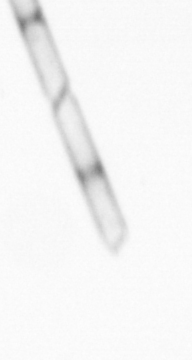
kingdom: Chromista
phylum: Ochrophyta
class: Bacillariophyceae
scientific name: Bacillariophyceae
